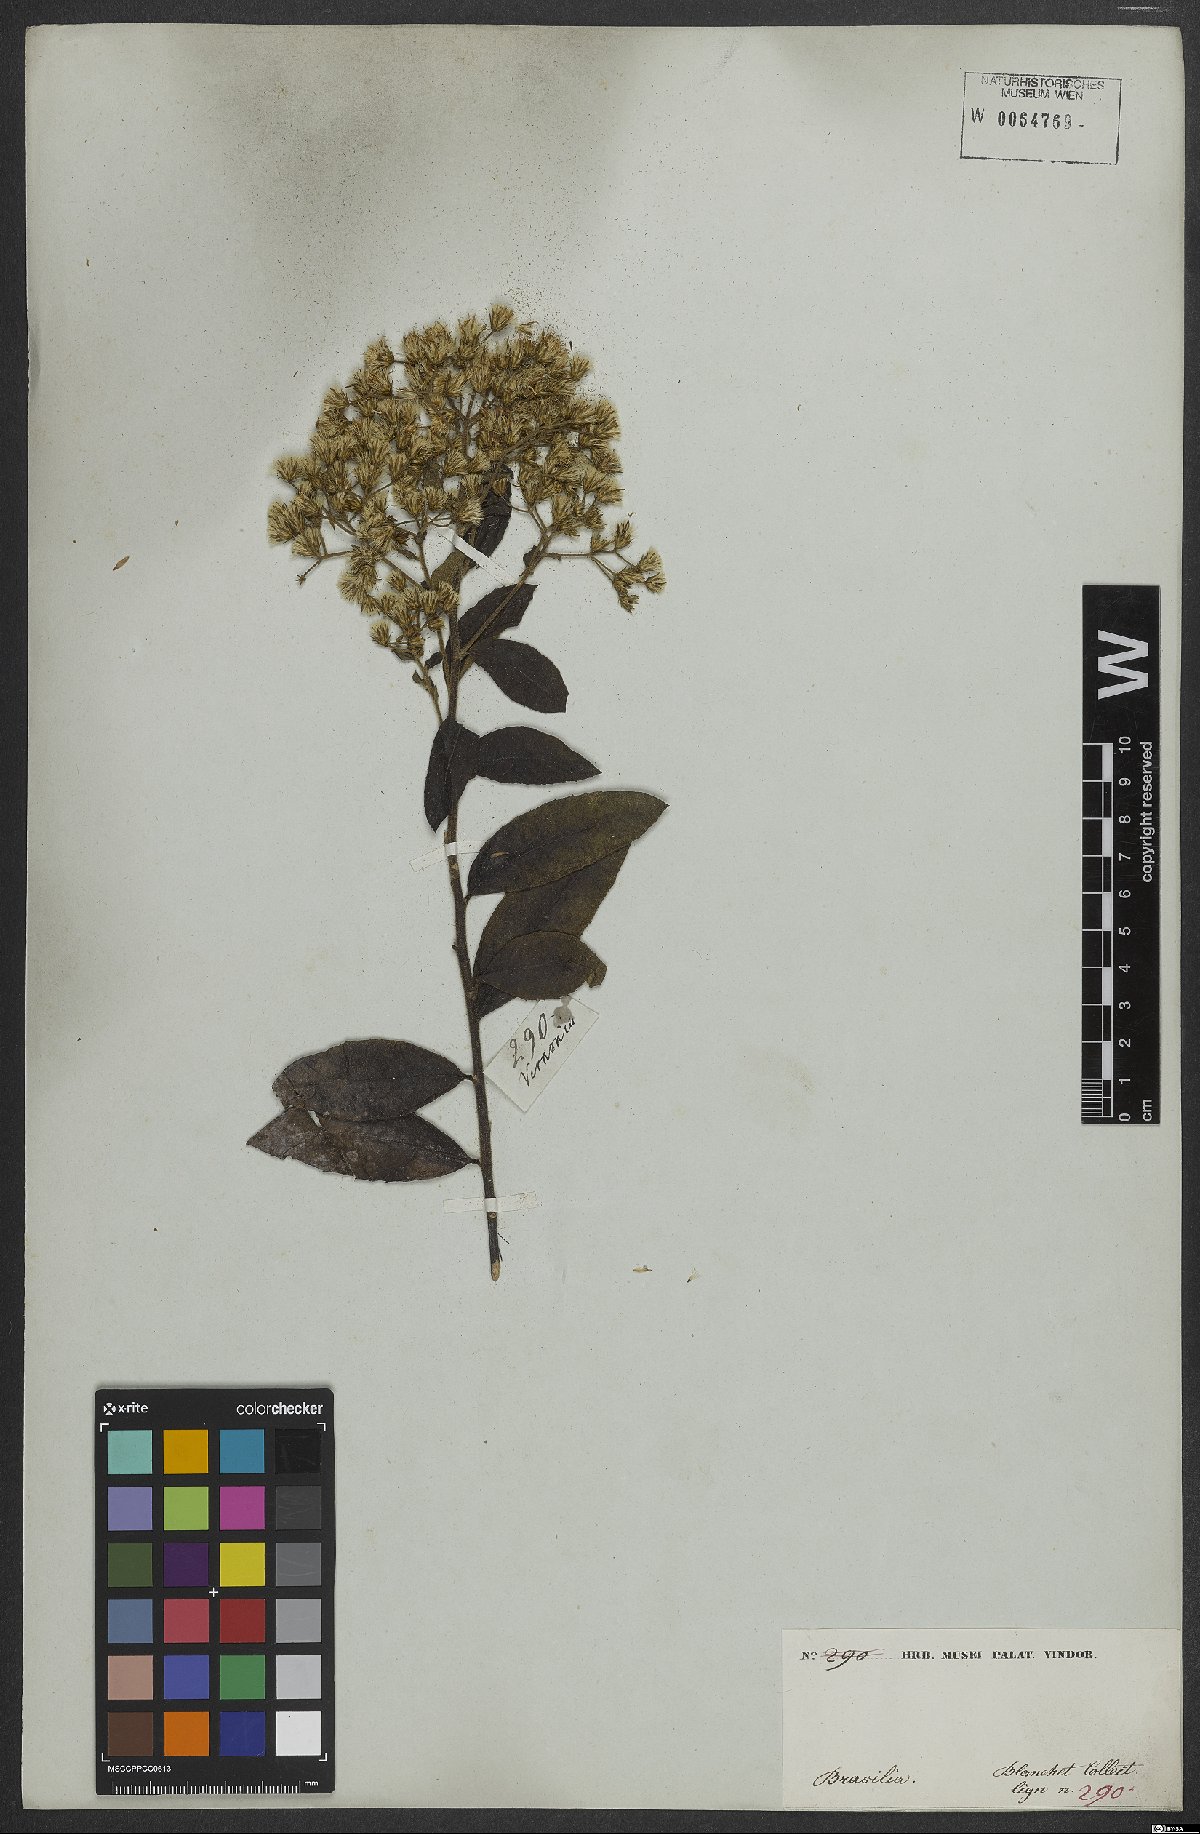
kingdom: Plantae
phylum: Tracheophyta
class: Magnoliopsida
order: Asterales
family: Asteraceae
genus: Vernonia
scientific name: Vernonia
